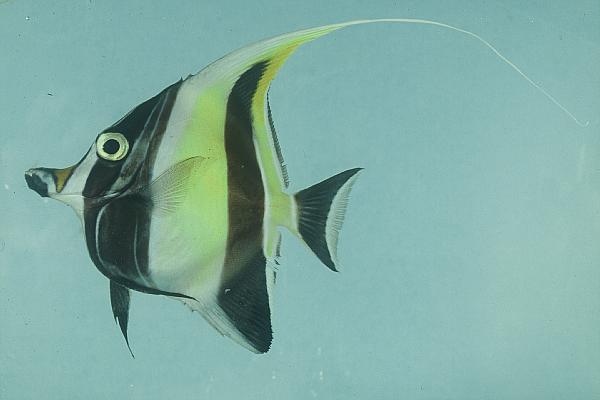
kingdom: Animalia
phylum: Chordata
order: Perciformes
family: Zanclidae
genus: Zanclus
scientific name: Zanclus cornutus
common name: Moorish idol
